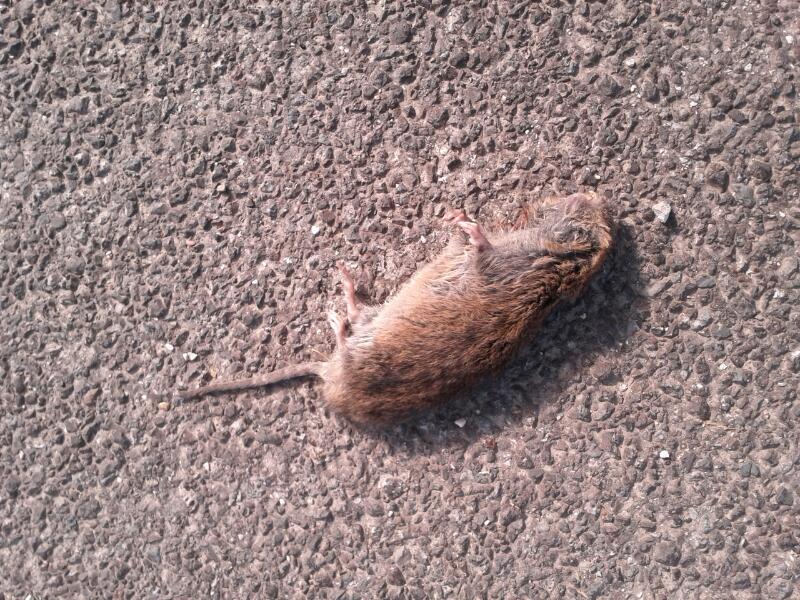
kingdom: Animalia
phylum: Chordata
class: Mammalia
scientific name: Mammalia
